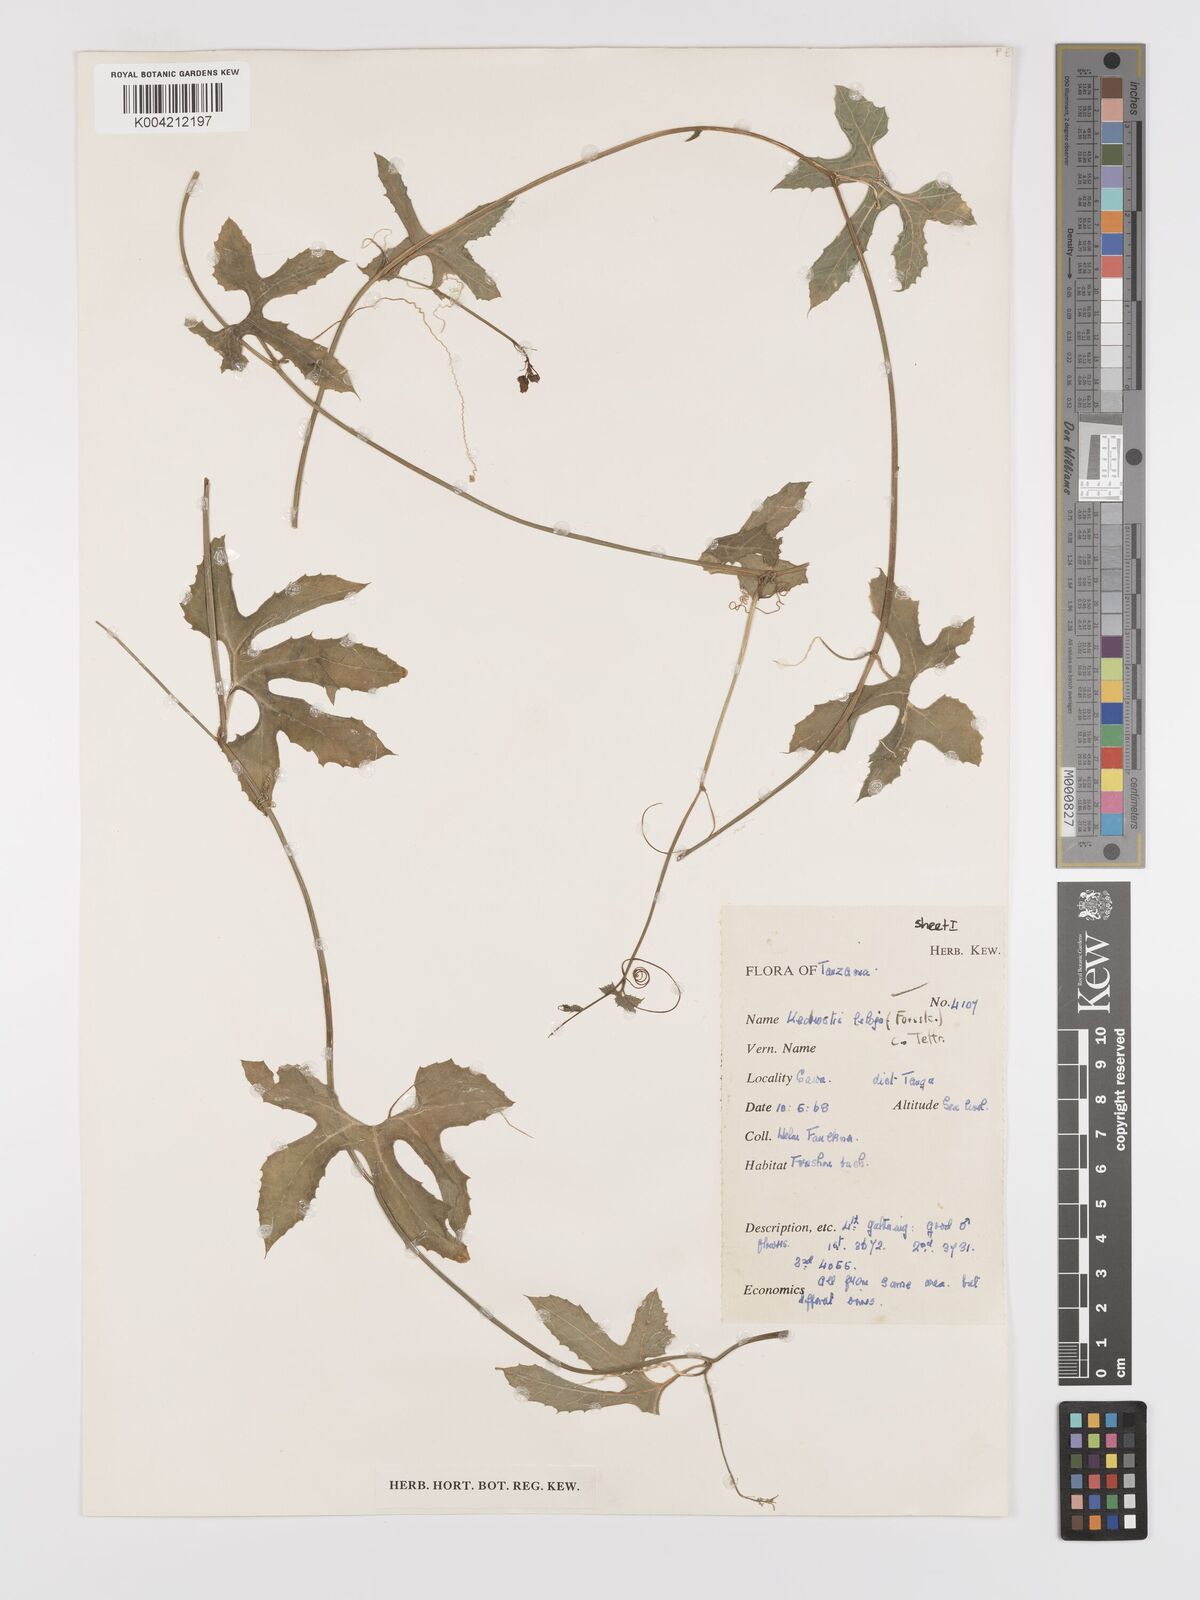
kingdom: Plantae
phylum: Tracheophyta
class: Magnoliopsida
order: Cucurbitales
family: Cucurbitaceae
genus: Kedrostis
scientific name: Kedrostis abdallae
